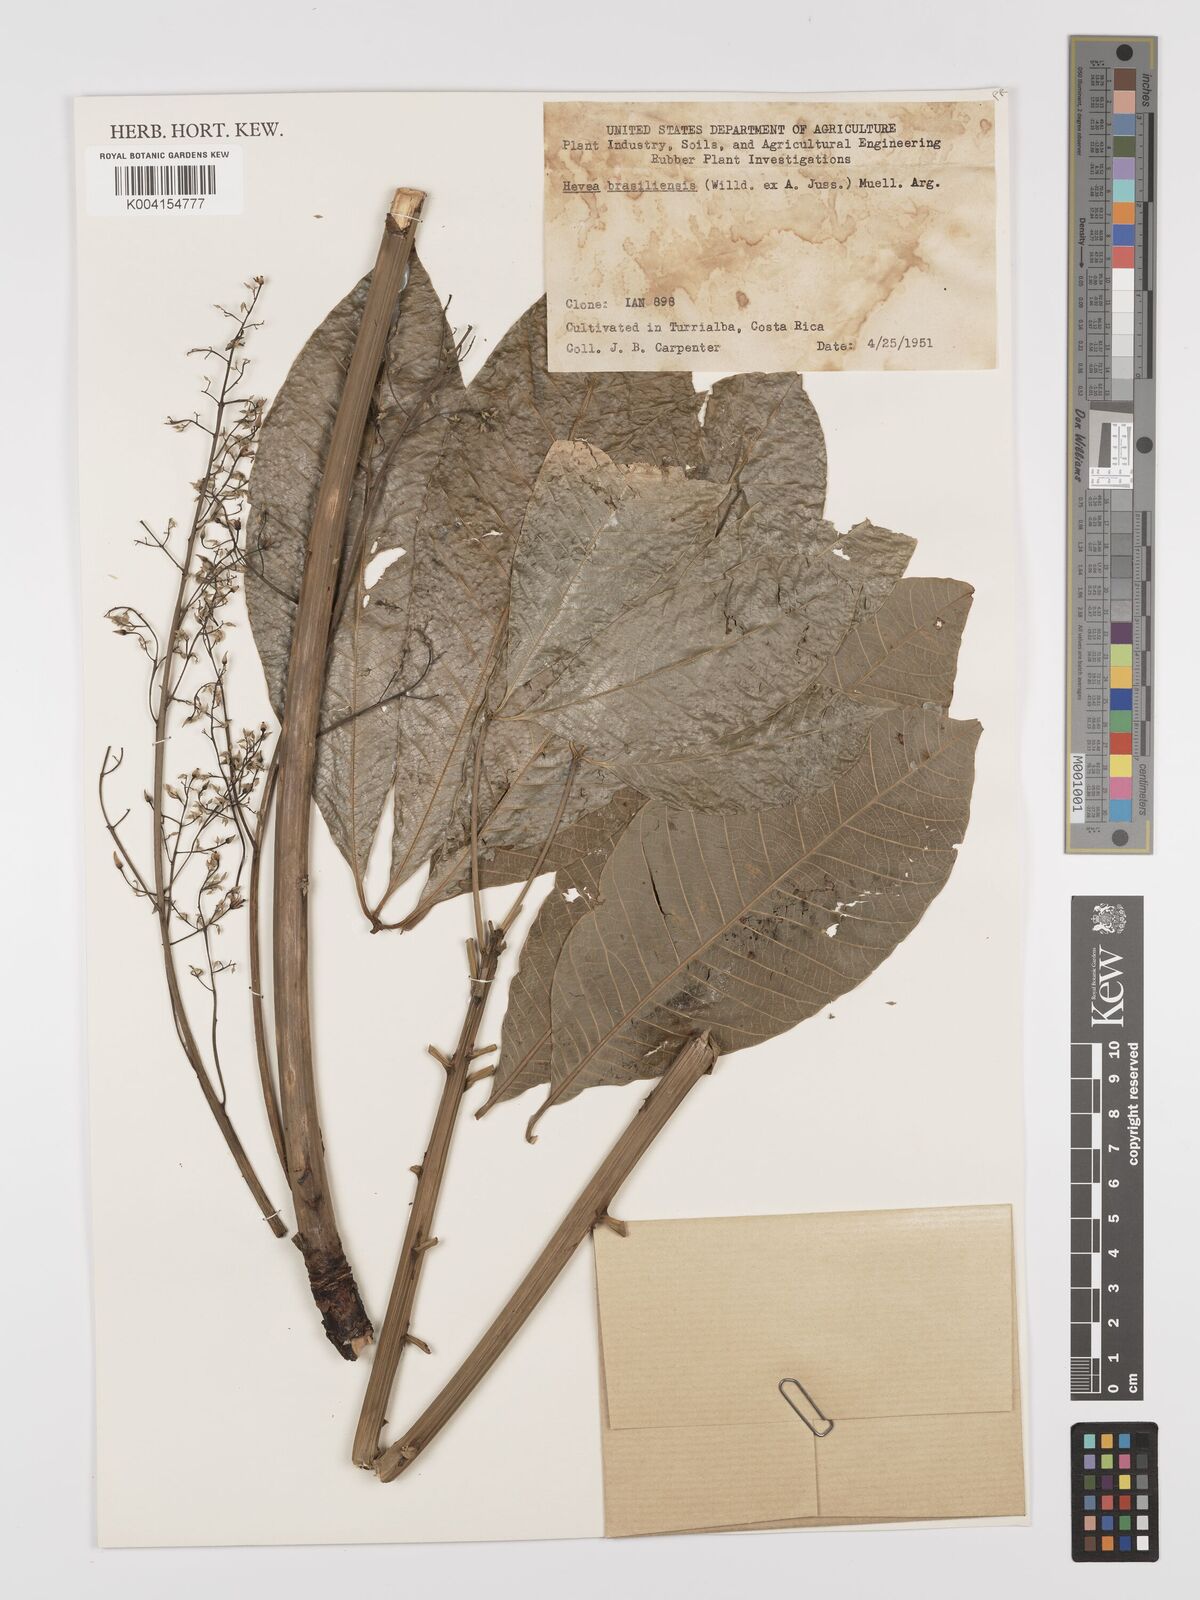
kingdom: Plantae
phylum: Tracheophyta
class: Magnoliopsida
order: Malpighiales
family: Euphorbiaceae
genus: Hevea
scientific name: Hevea brasiliensis
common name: Natural rubber
